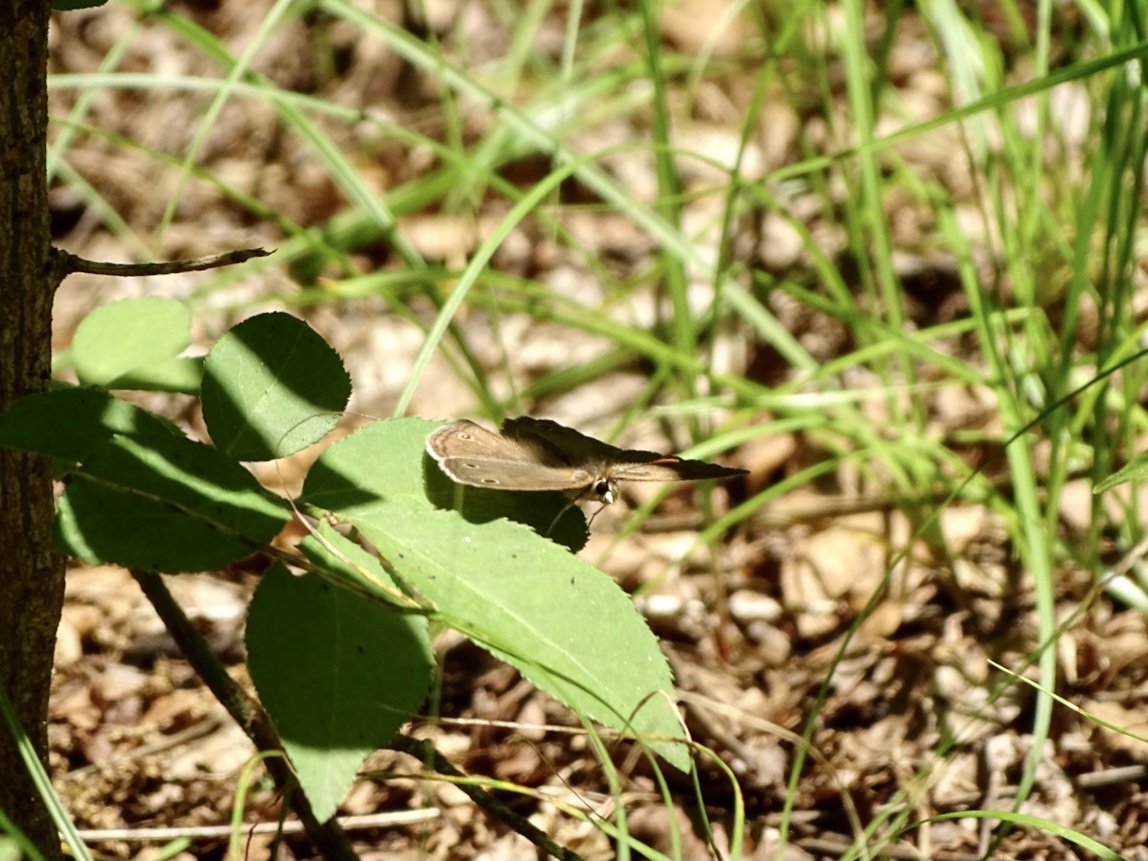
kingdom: Animalia
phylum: Arthropoda
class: Insecta
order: Lepidoptera
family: Nymphalidae
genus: Euptychia
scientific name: Euptychia cymela
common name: Little Wood Satyr
